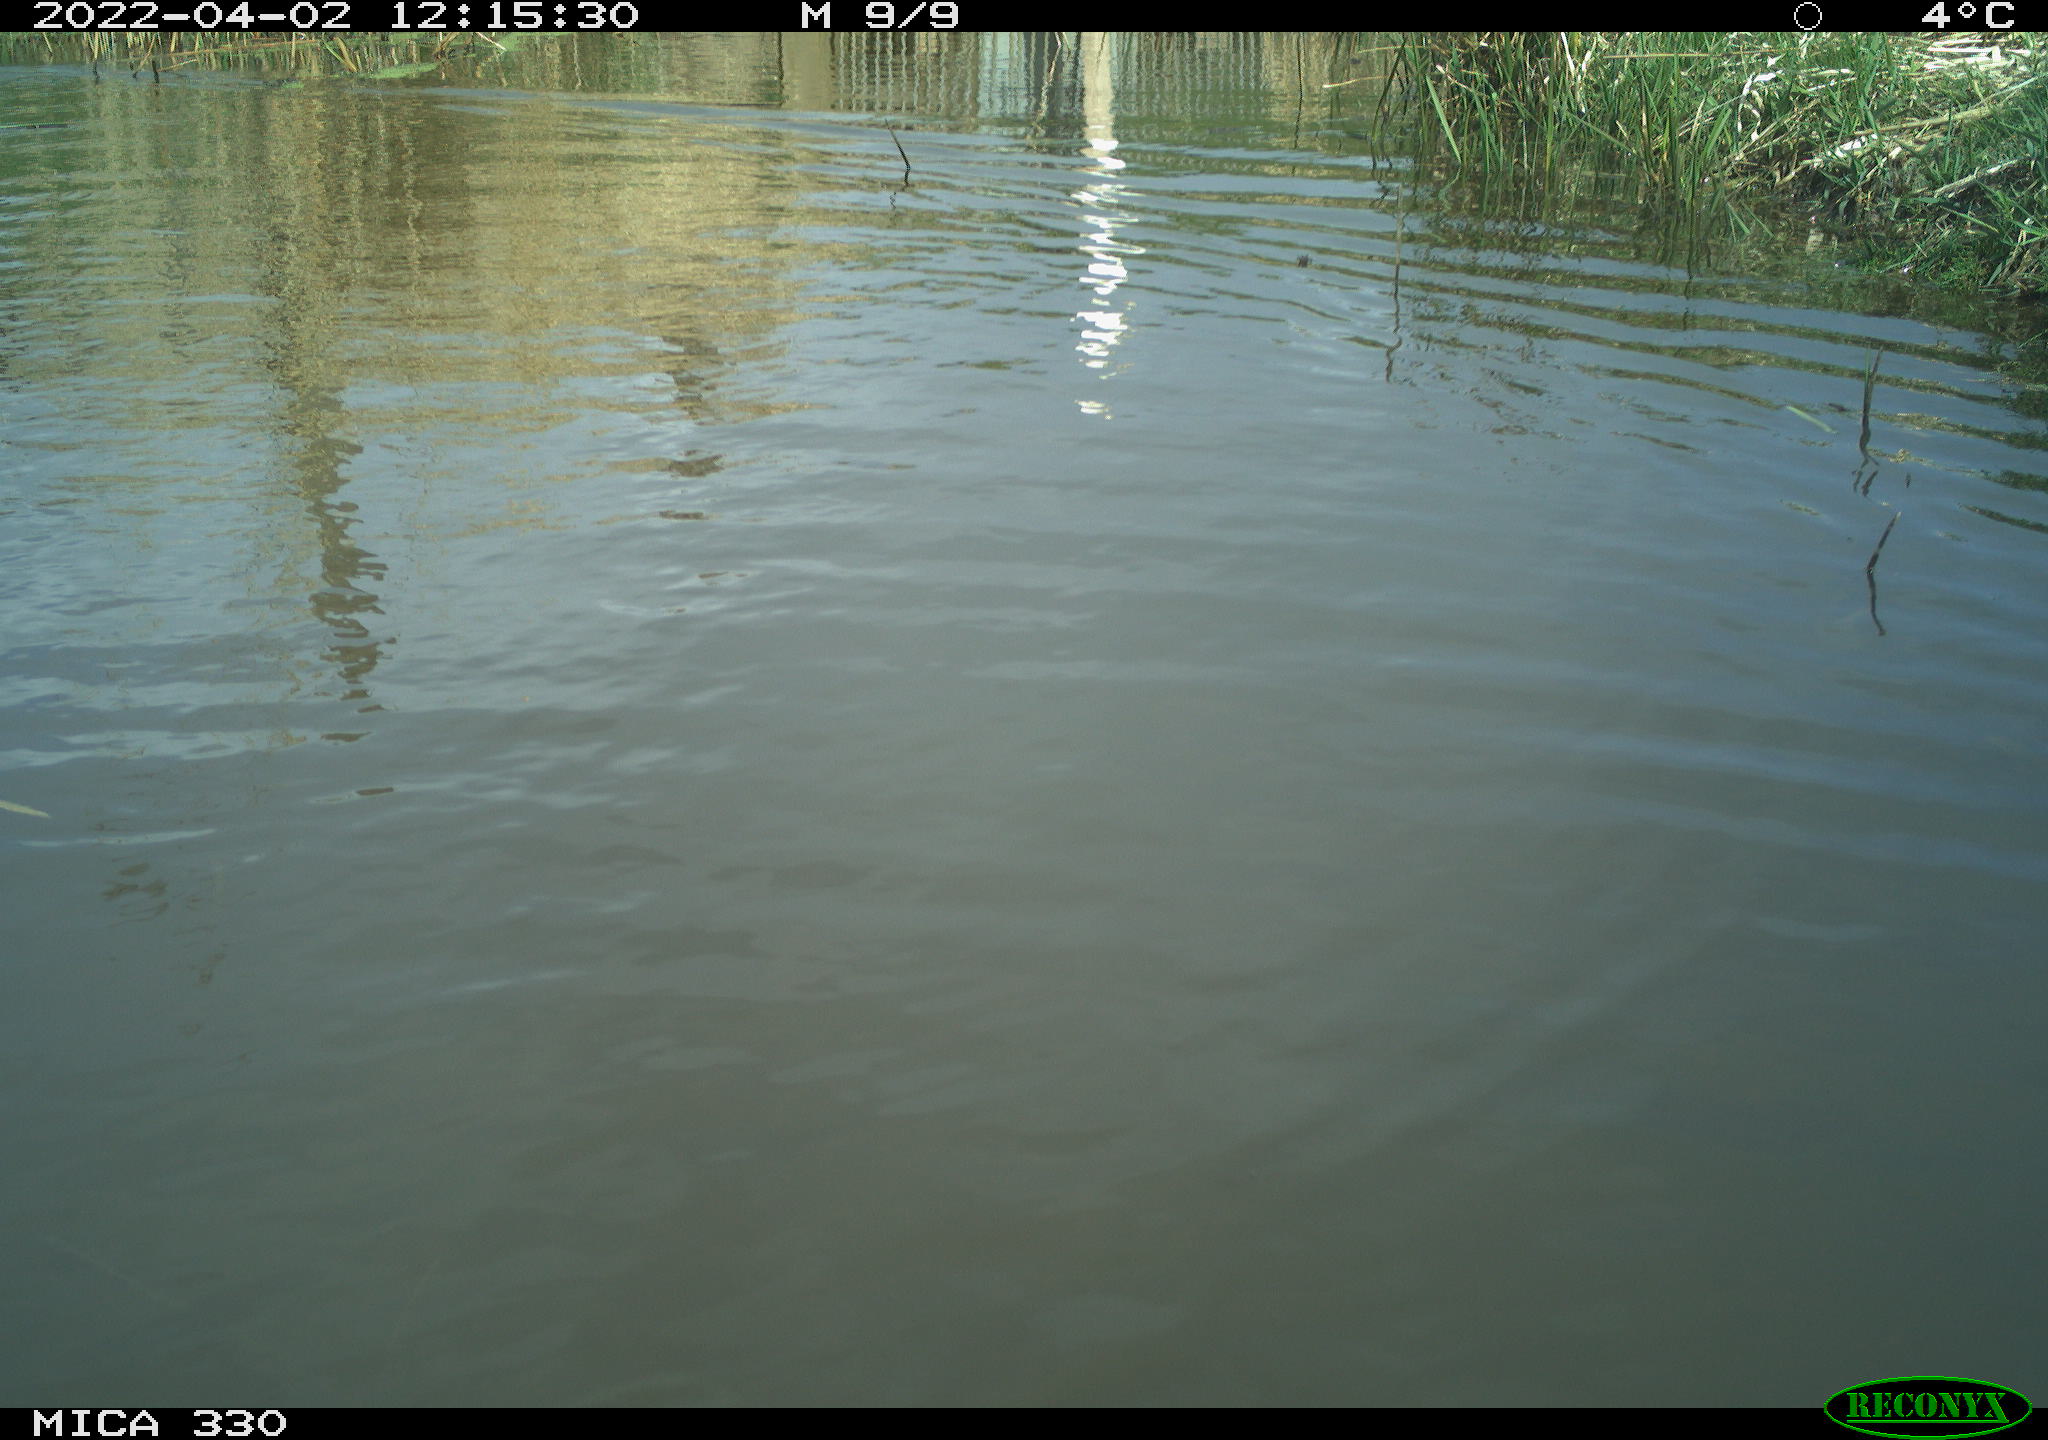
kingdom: Animalia
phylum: Chordata
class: Aves
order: Anseriformes
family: Anatidae
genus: Anas
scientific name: Anas platyrhynchos
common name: Mallard
